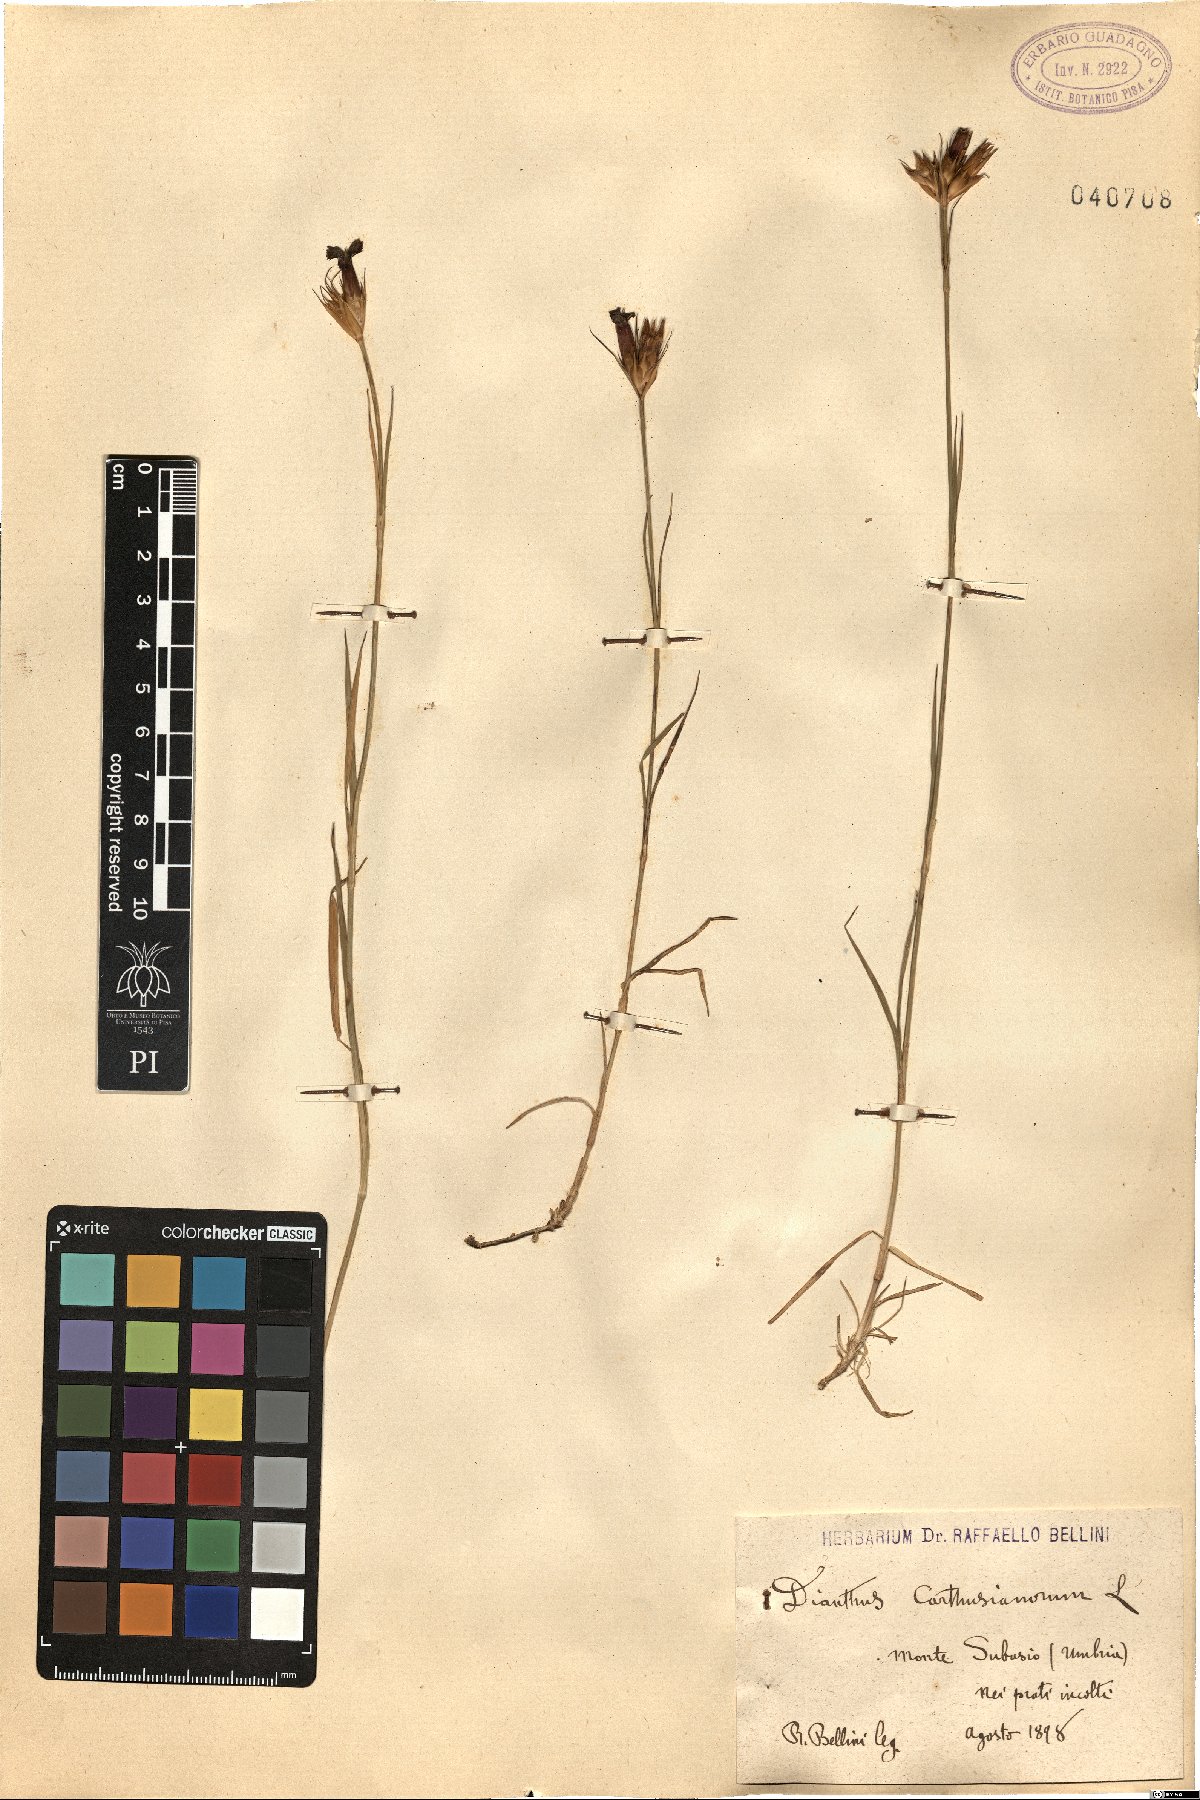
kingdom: Plantae
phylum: Tracheophyta
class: Magnoliopsida
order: Caryophyllales
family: Caryophyllaceae
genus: Dianthus
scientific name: Dianthus carthusianorum
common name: Carthusian pink
